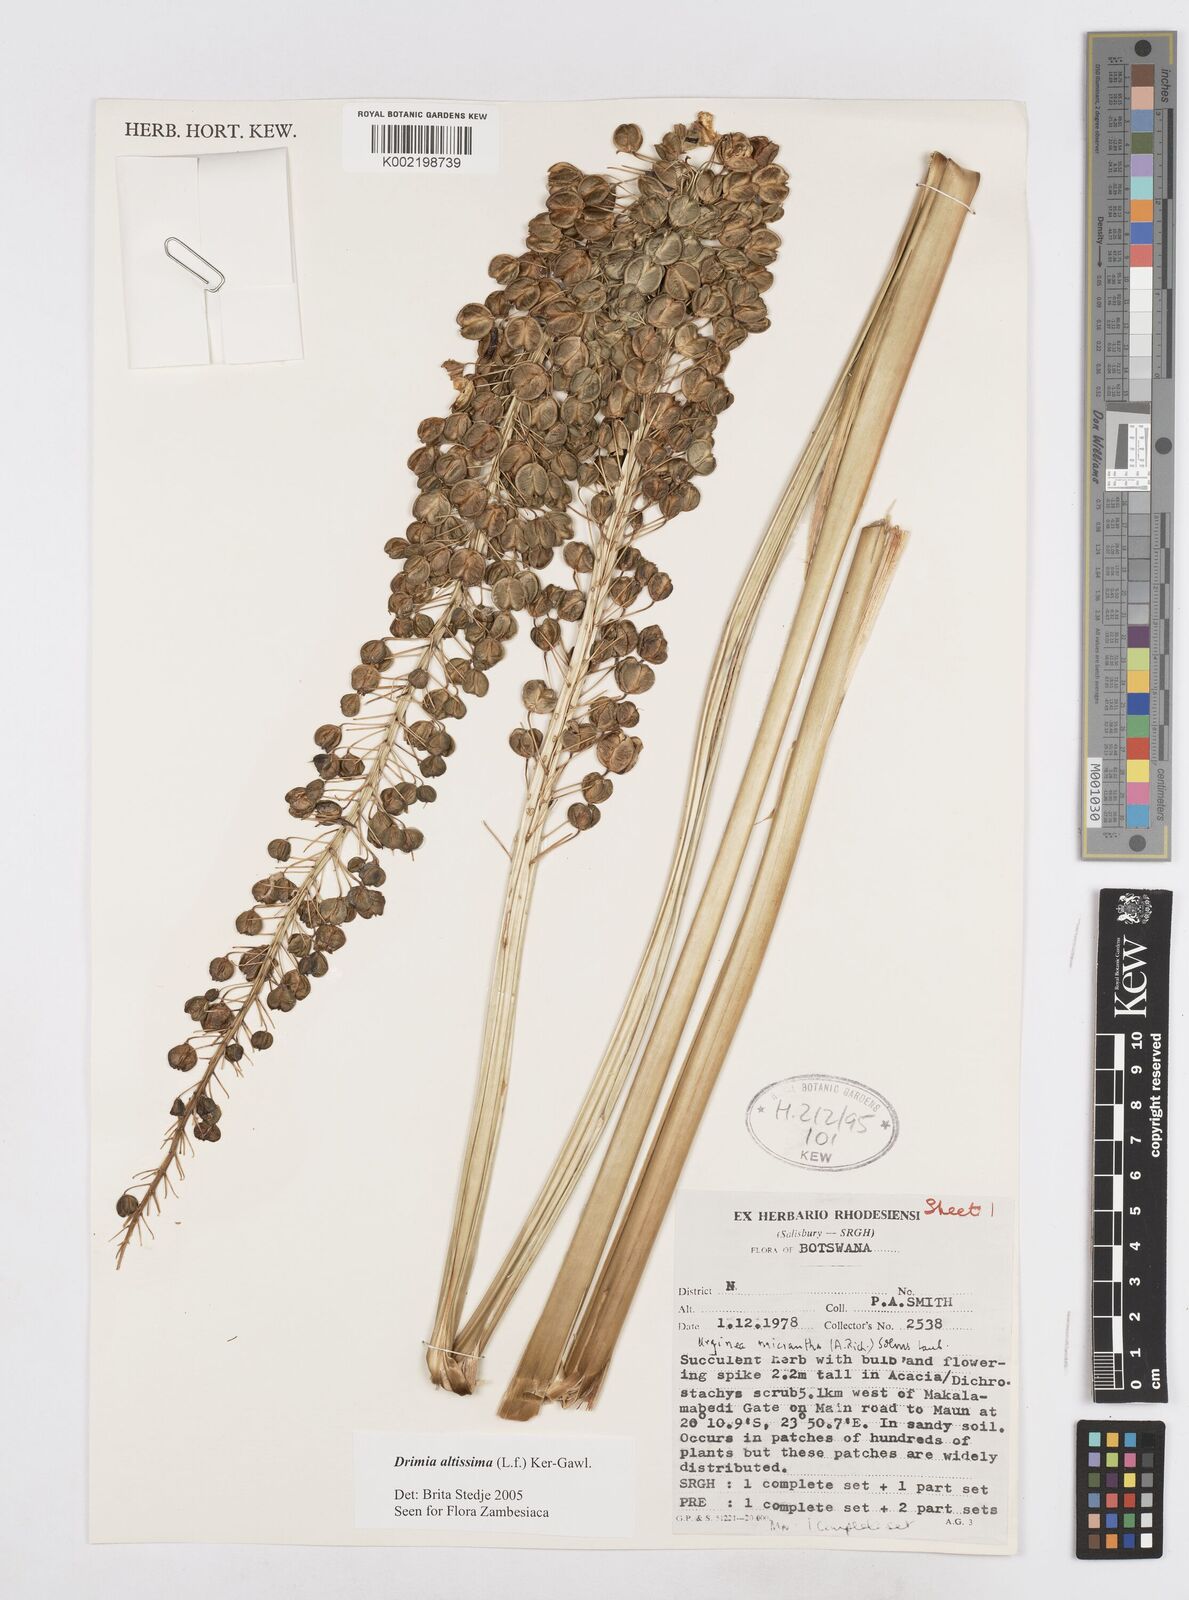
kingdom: Plantae
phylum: Tracheophyta
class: Liliopsida
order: Asparagales
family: Asparagaceae
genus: Drimia
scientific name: Drimia altissima
